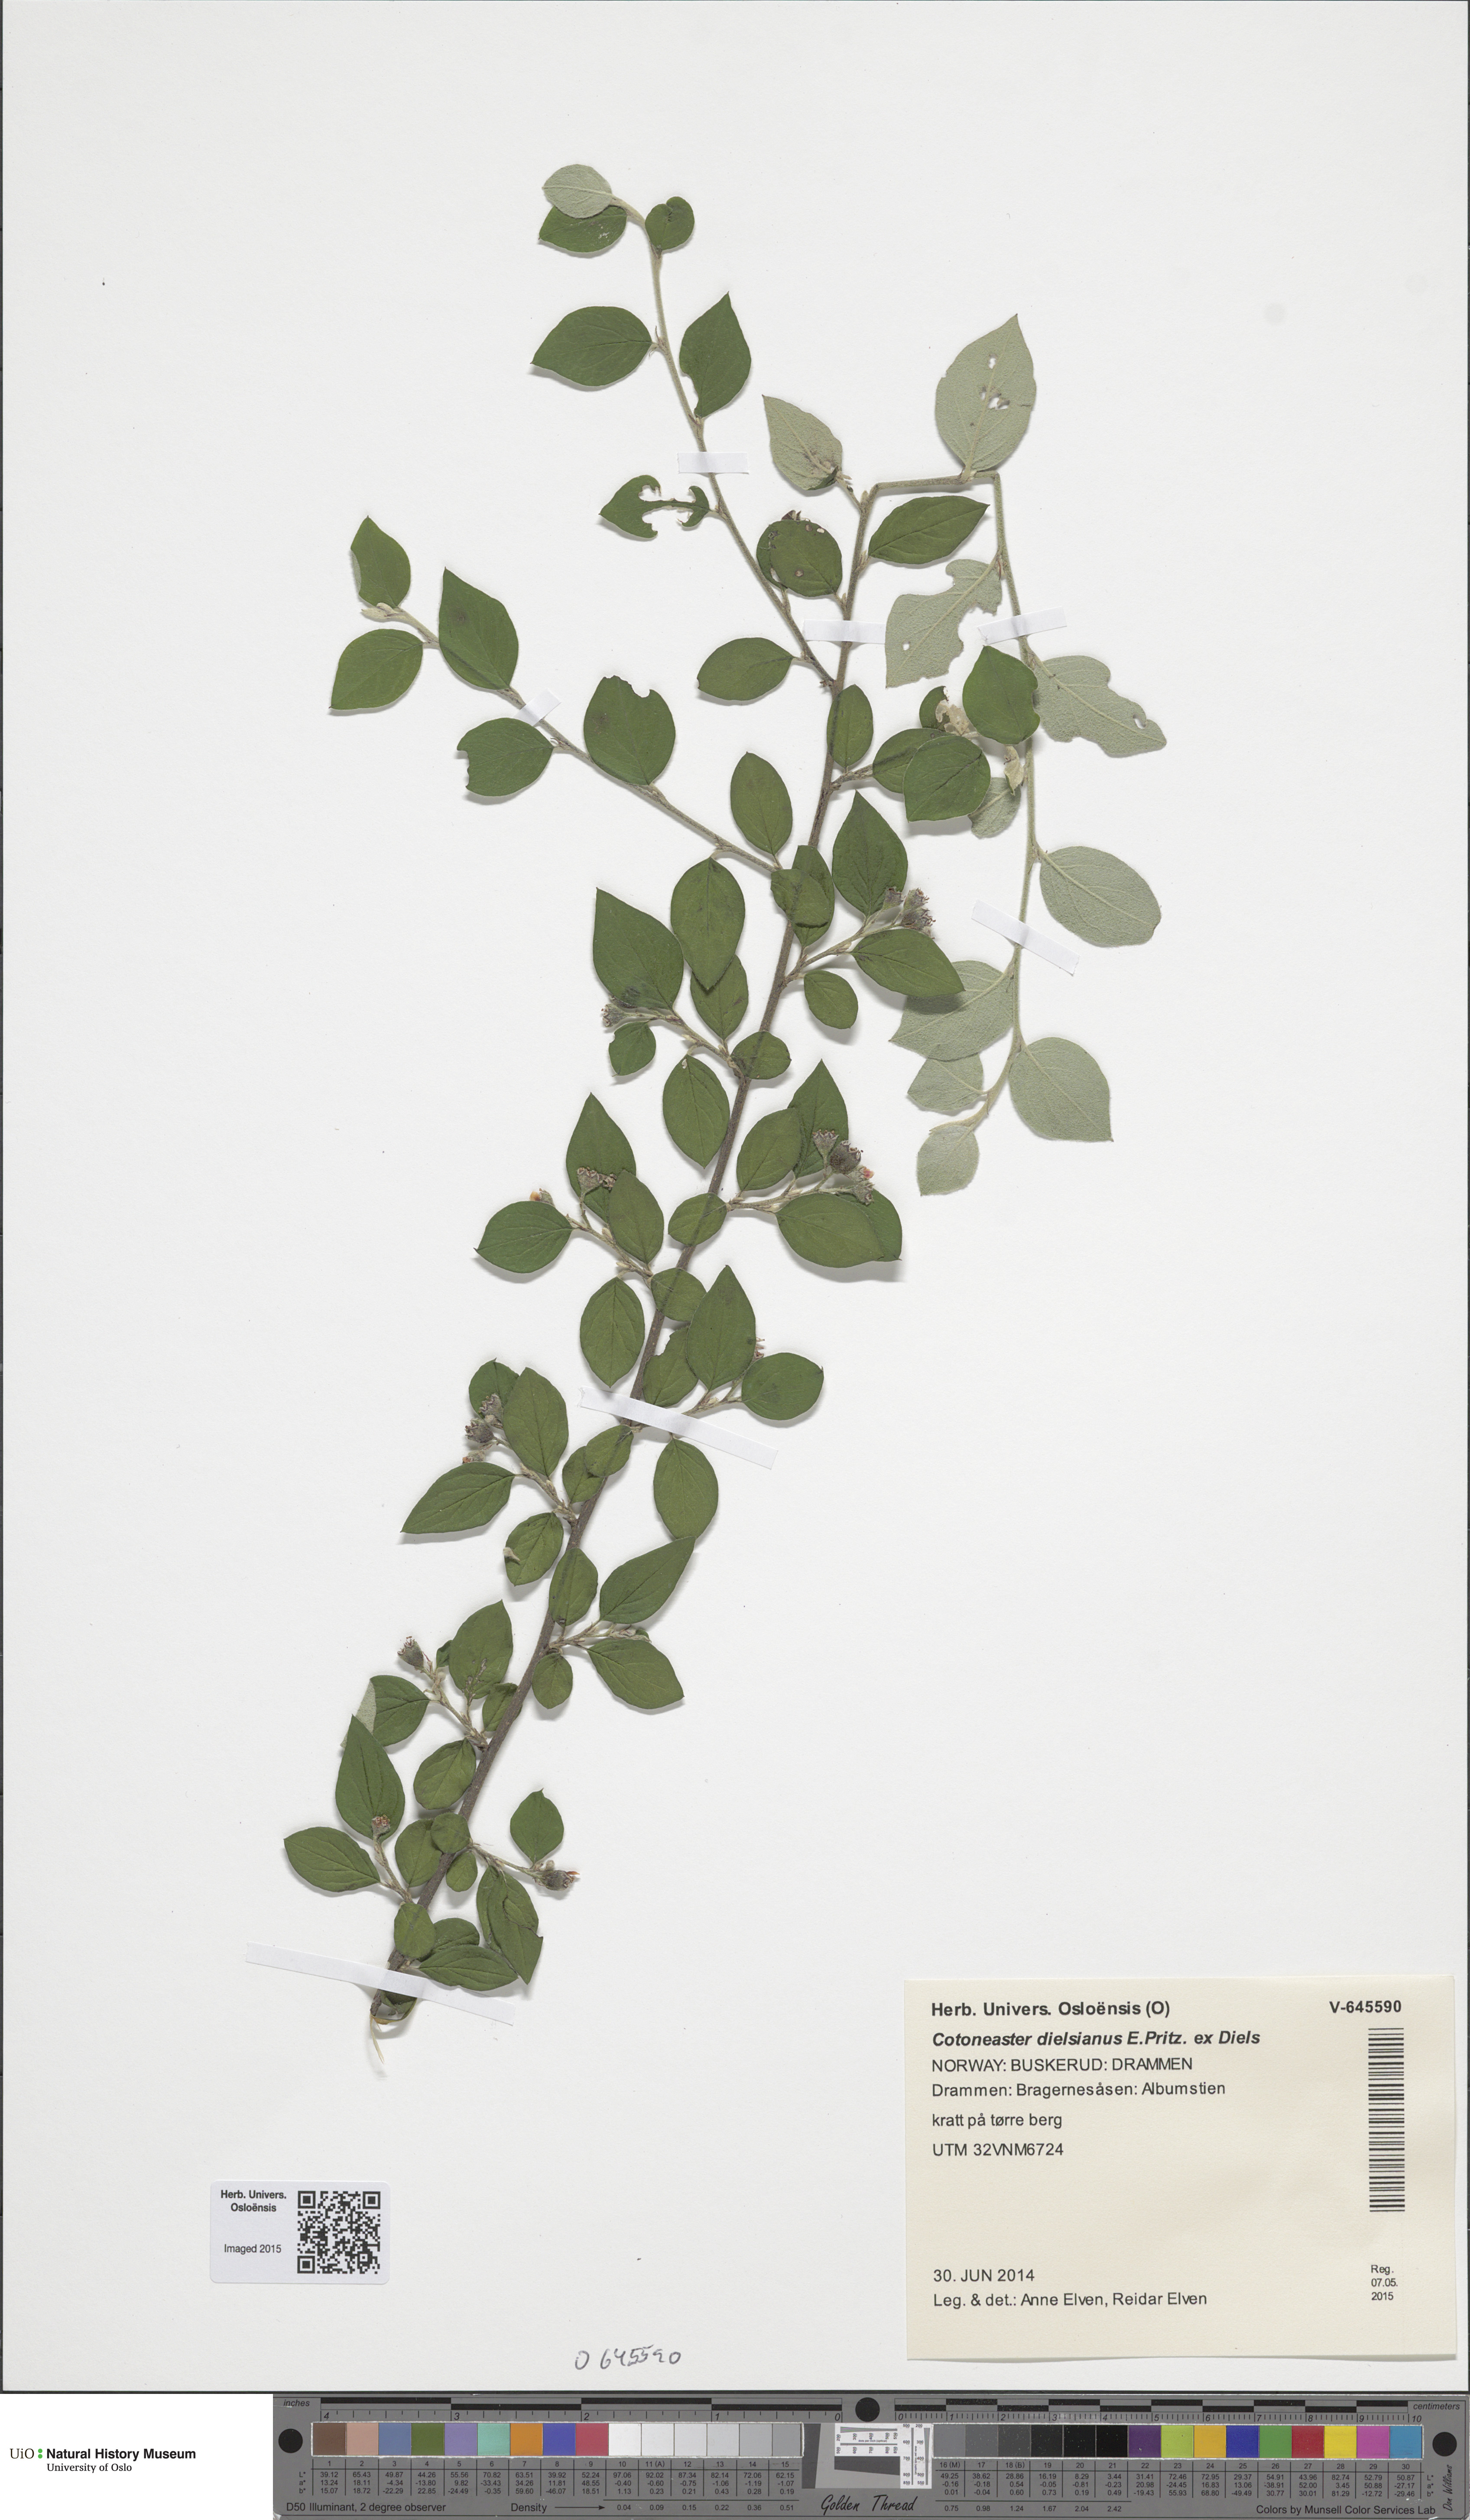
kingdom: Plantae
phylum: Tracheophyta
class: Magnoliopsida
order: Rosales
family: Rosaceae
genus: Cotoneaster
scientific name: Cotoneaster dielsianus
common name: Diels's cotoneaster
